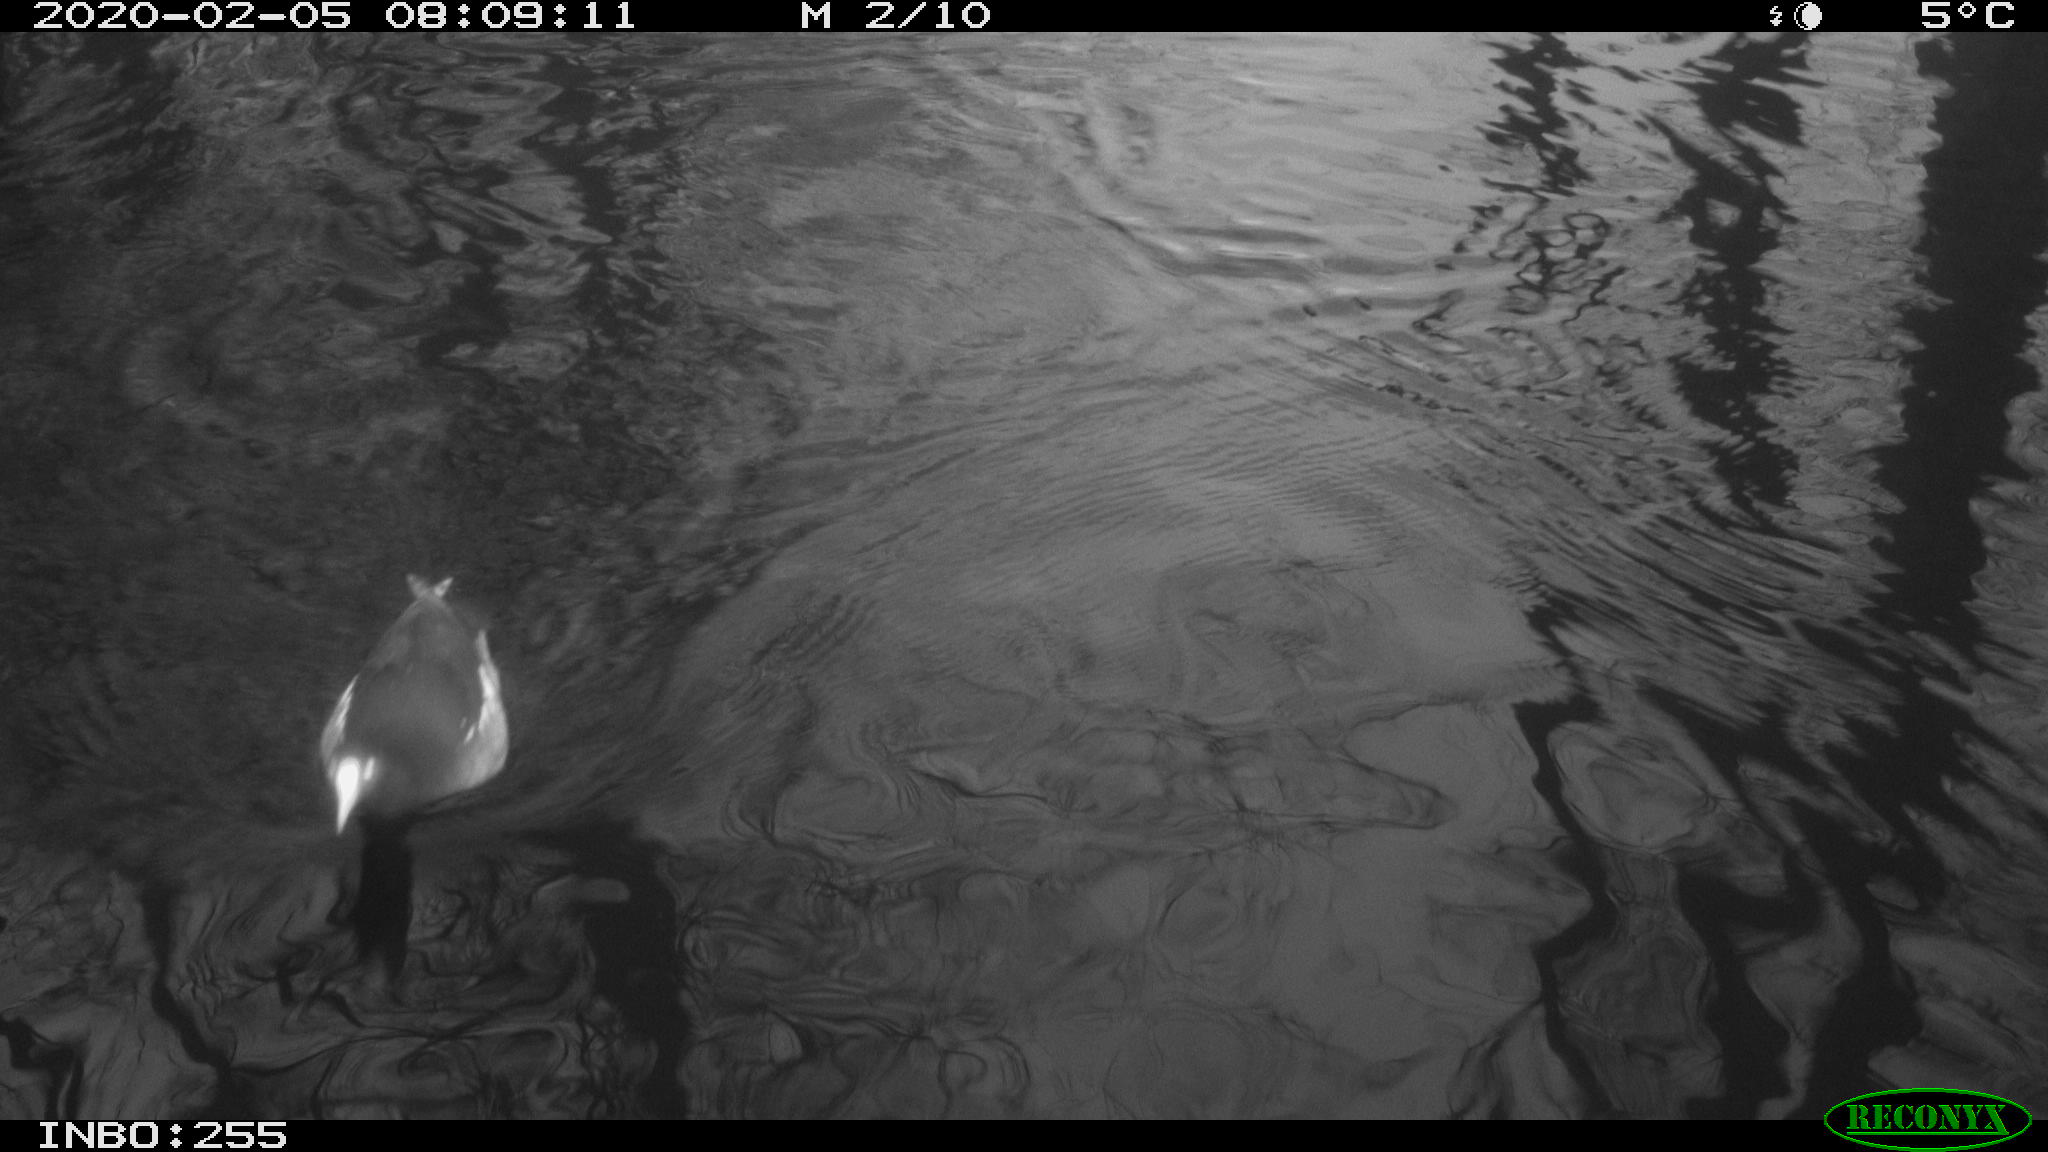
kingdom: Animalia
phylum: Chordata
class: Aves
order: Gruiformes
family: Rallidae
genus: Fulica
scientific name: Fulica atra
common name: Eurasian coot
